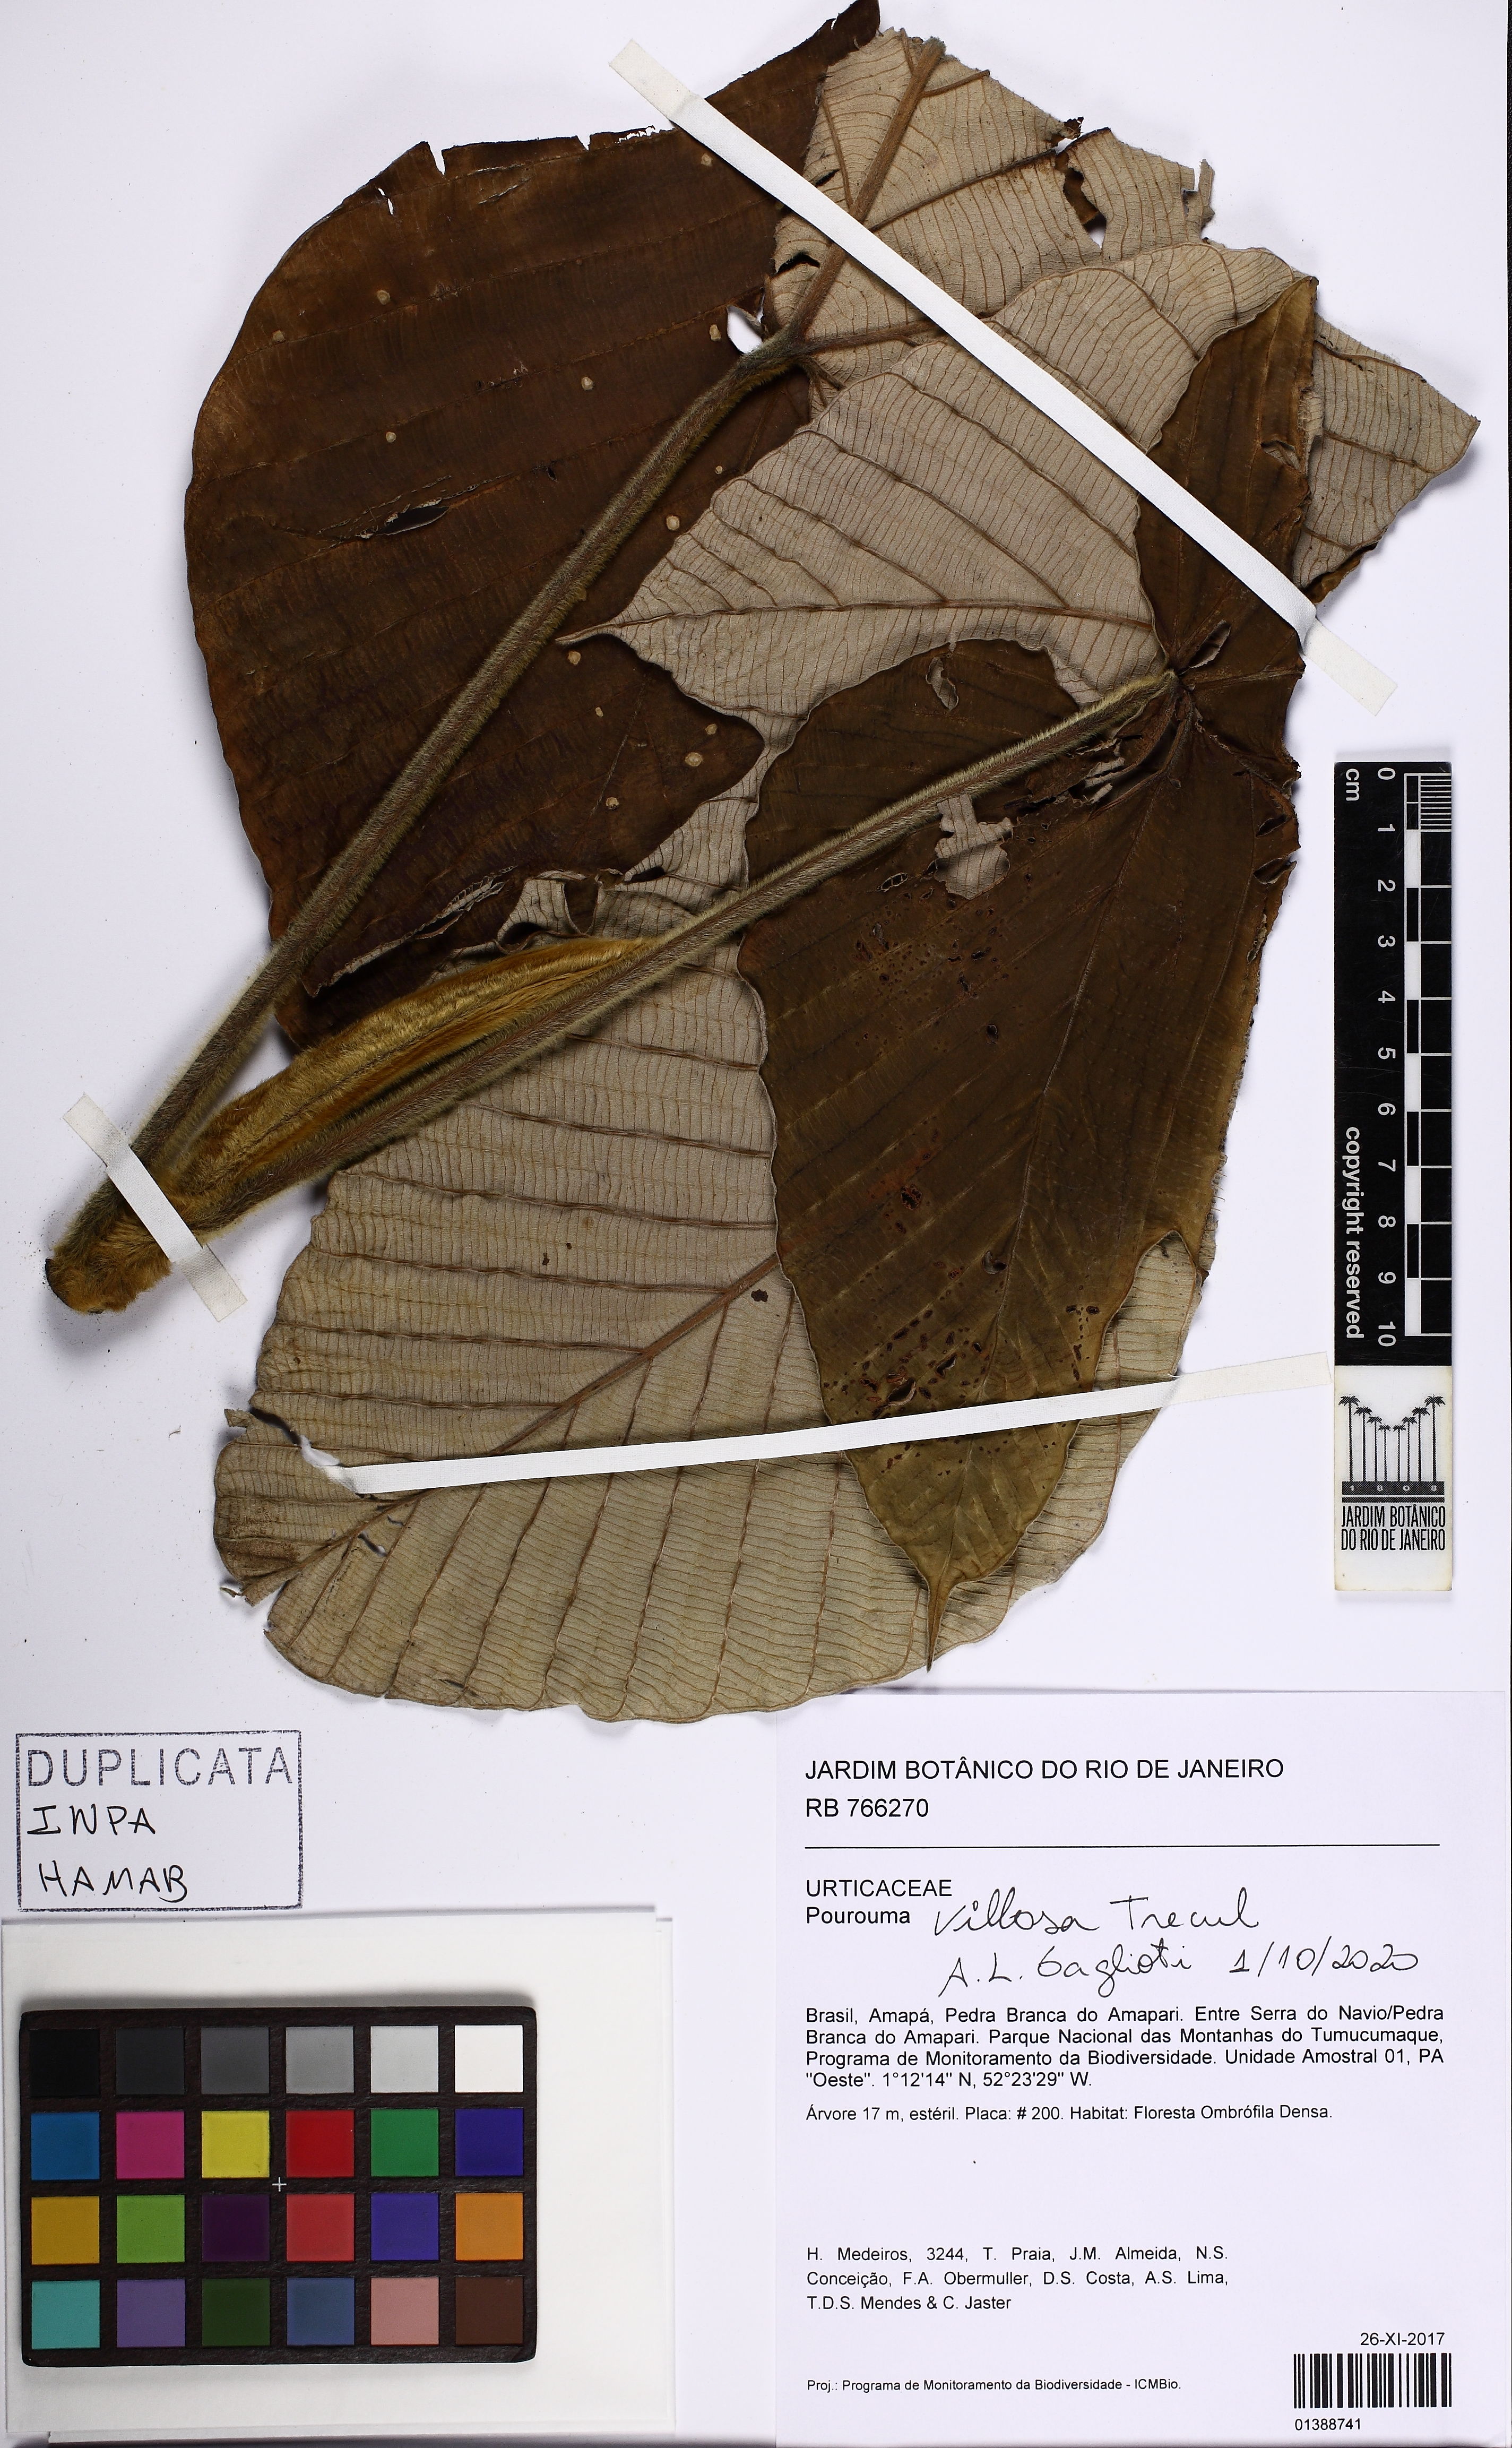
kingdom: Plantae
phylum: Tracheophyta
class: Magnoliopsida
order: Rosales
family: Urticaceae
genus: Pourouma
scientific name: Pourouma villosa
